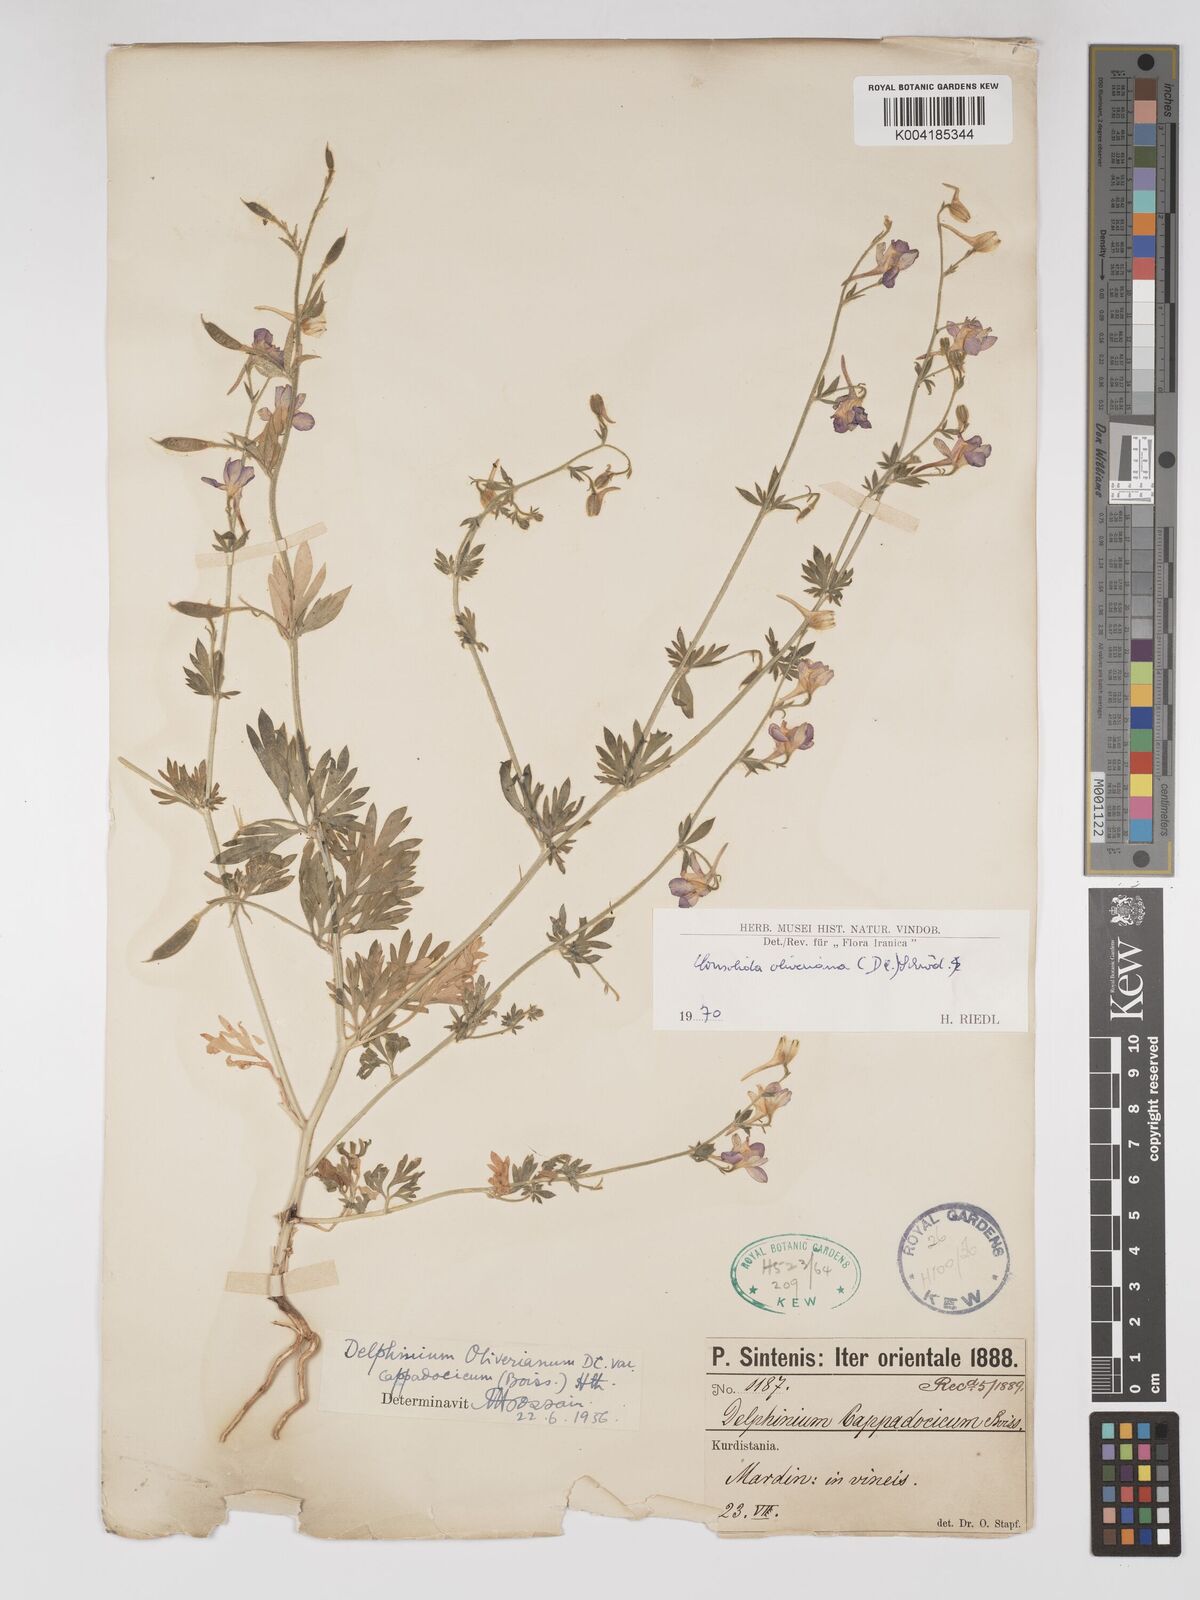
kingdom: Plantae
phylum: Tracheophyta
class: Magnoliopsida
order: Ranunculales
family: Ranunculaceae
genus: Delphinium
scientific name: Delphinium oliverianum
